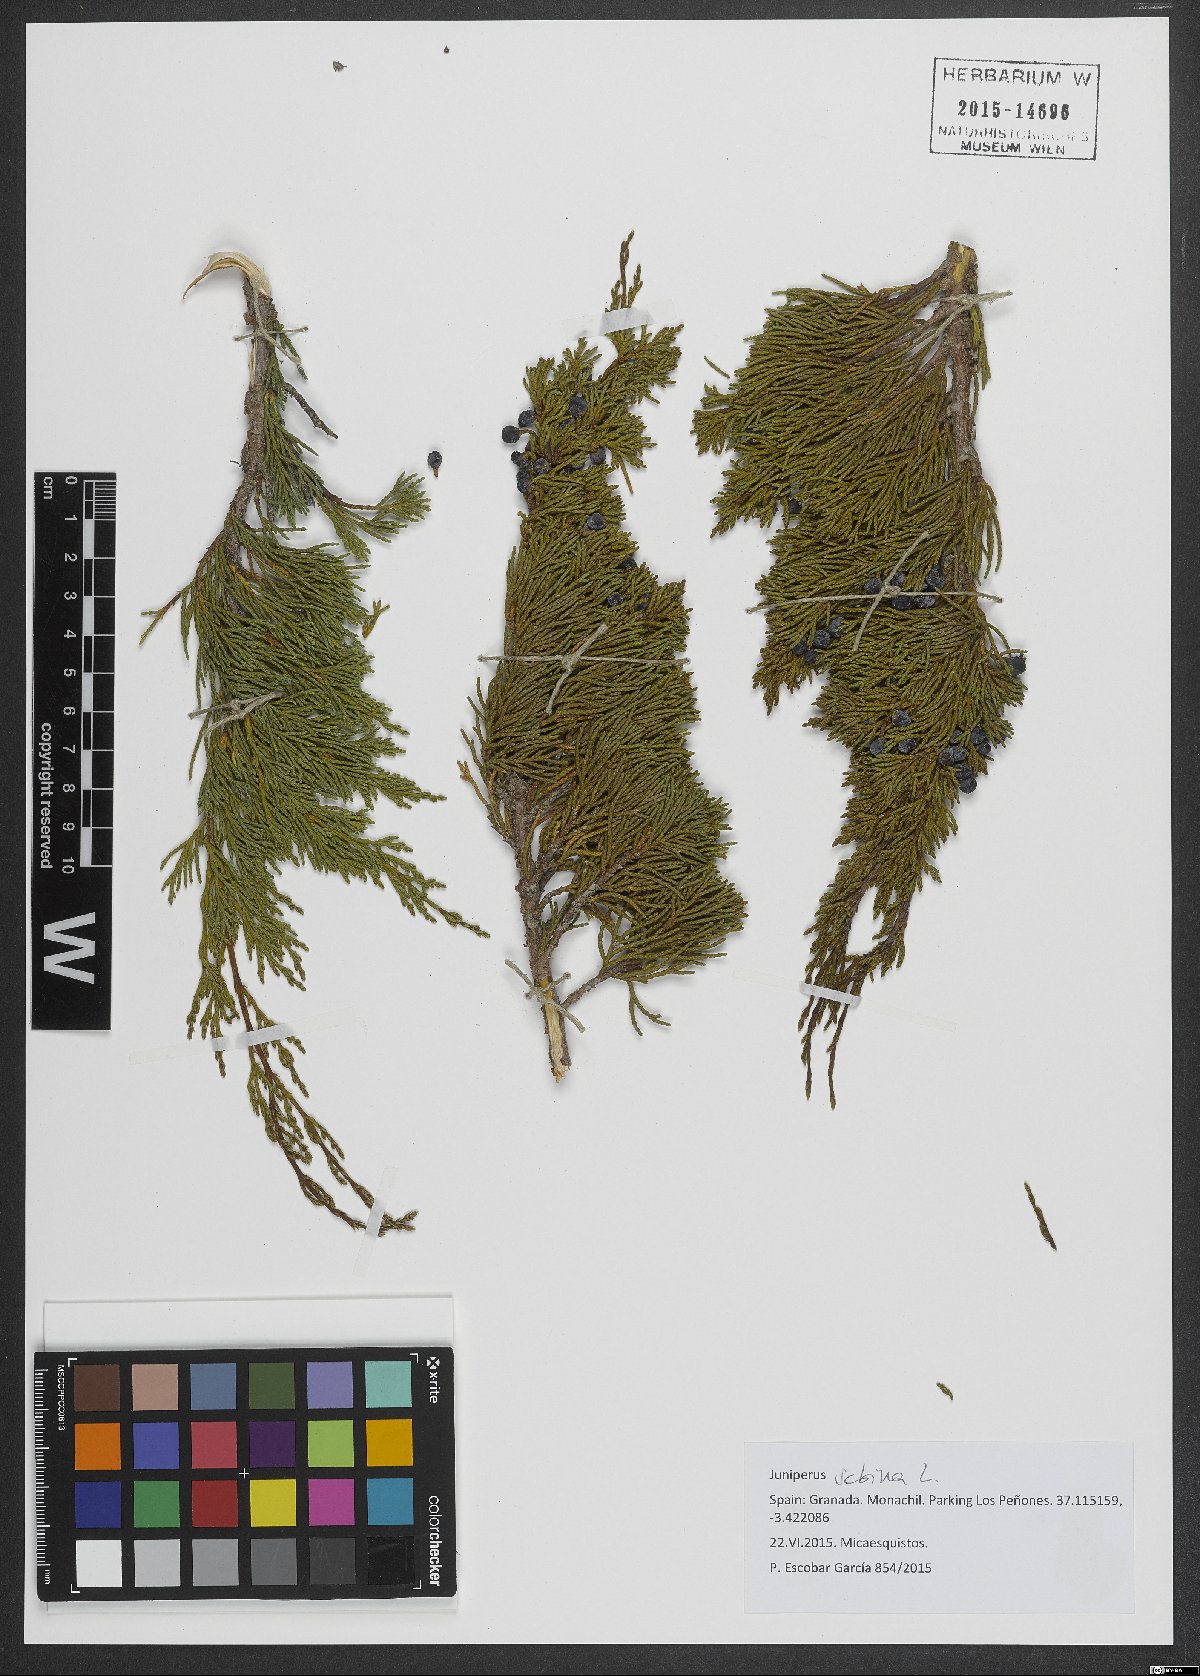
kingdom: Plantae
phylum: Tracheophyta
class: Pinopsida
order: Pinales
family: Cupressaceae
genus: Juniperus
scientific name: Juniperus sabina
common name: Savin
